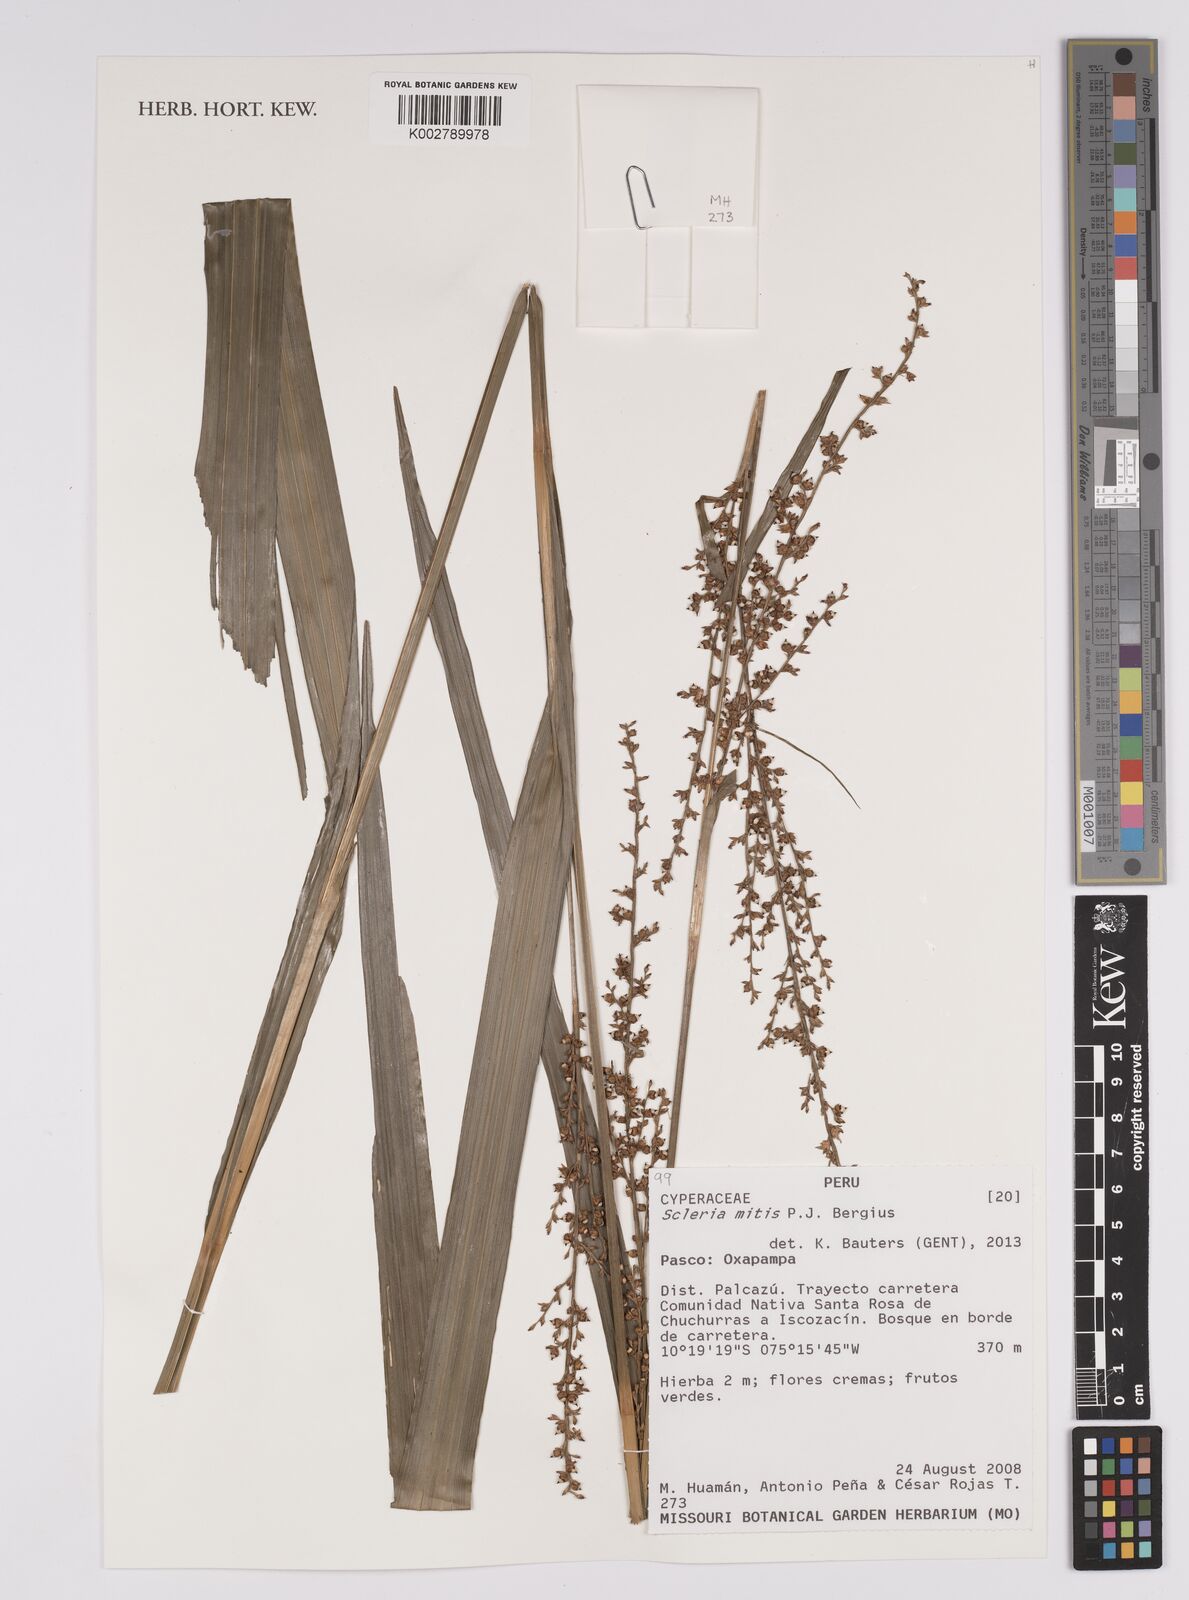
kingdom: Plantae
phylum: Tracheophyta
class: Liliopsida
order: Poales
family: Cyperaceae
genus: Scleria
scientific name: Scleria mitis
